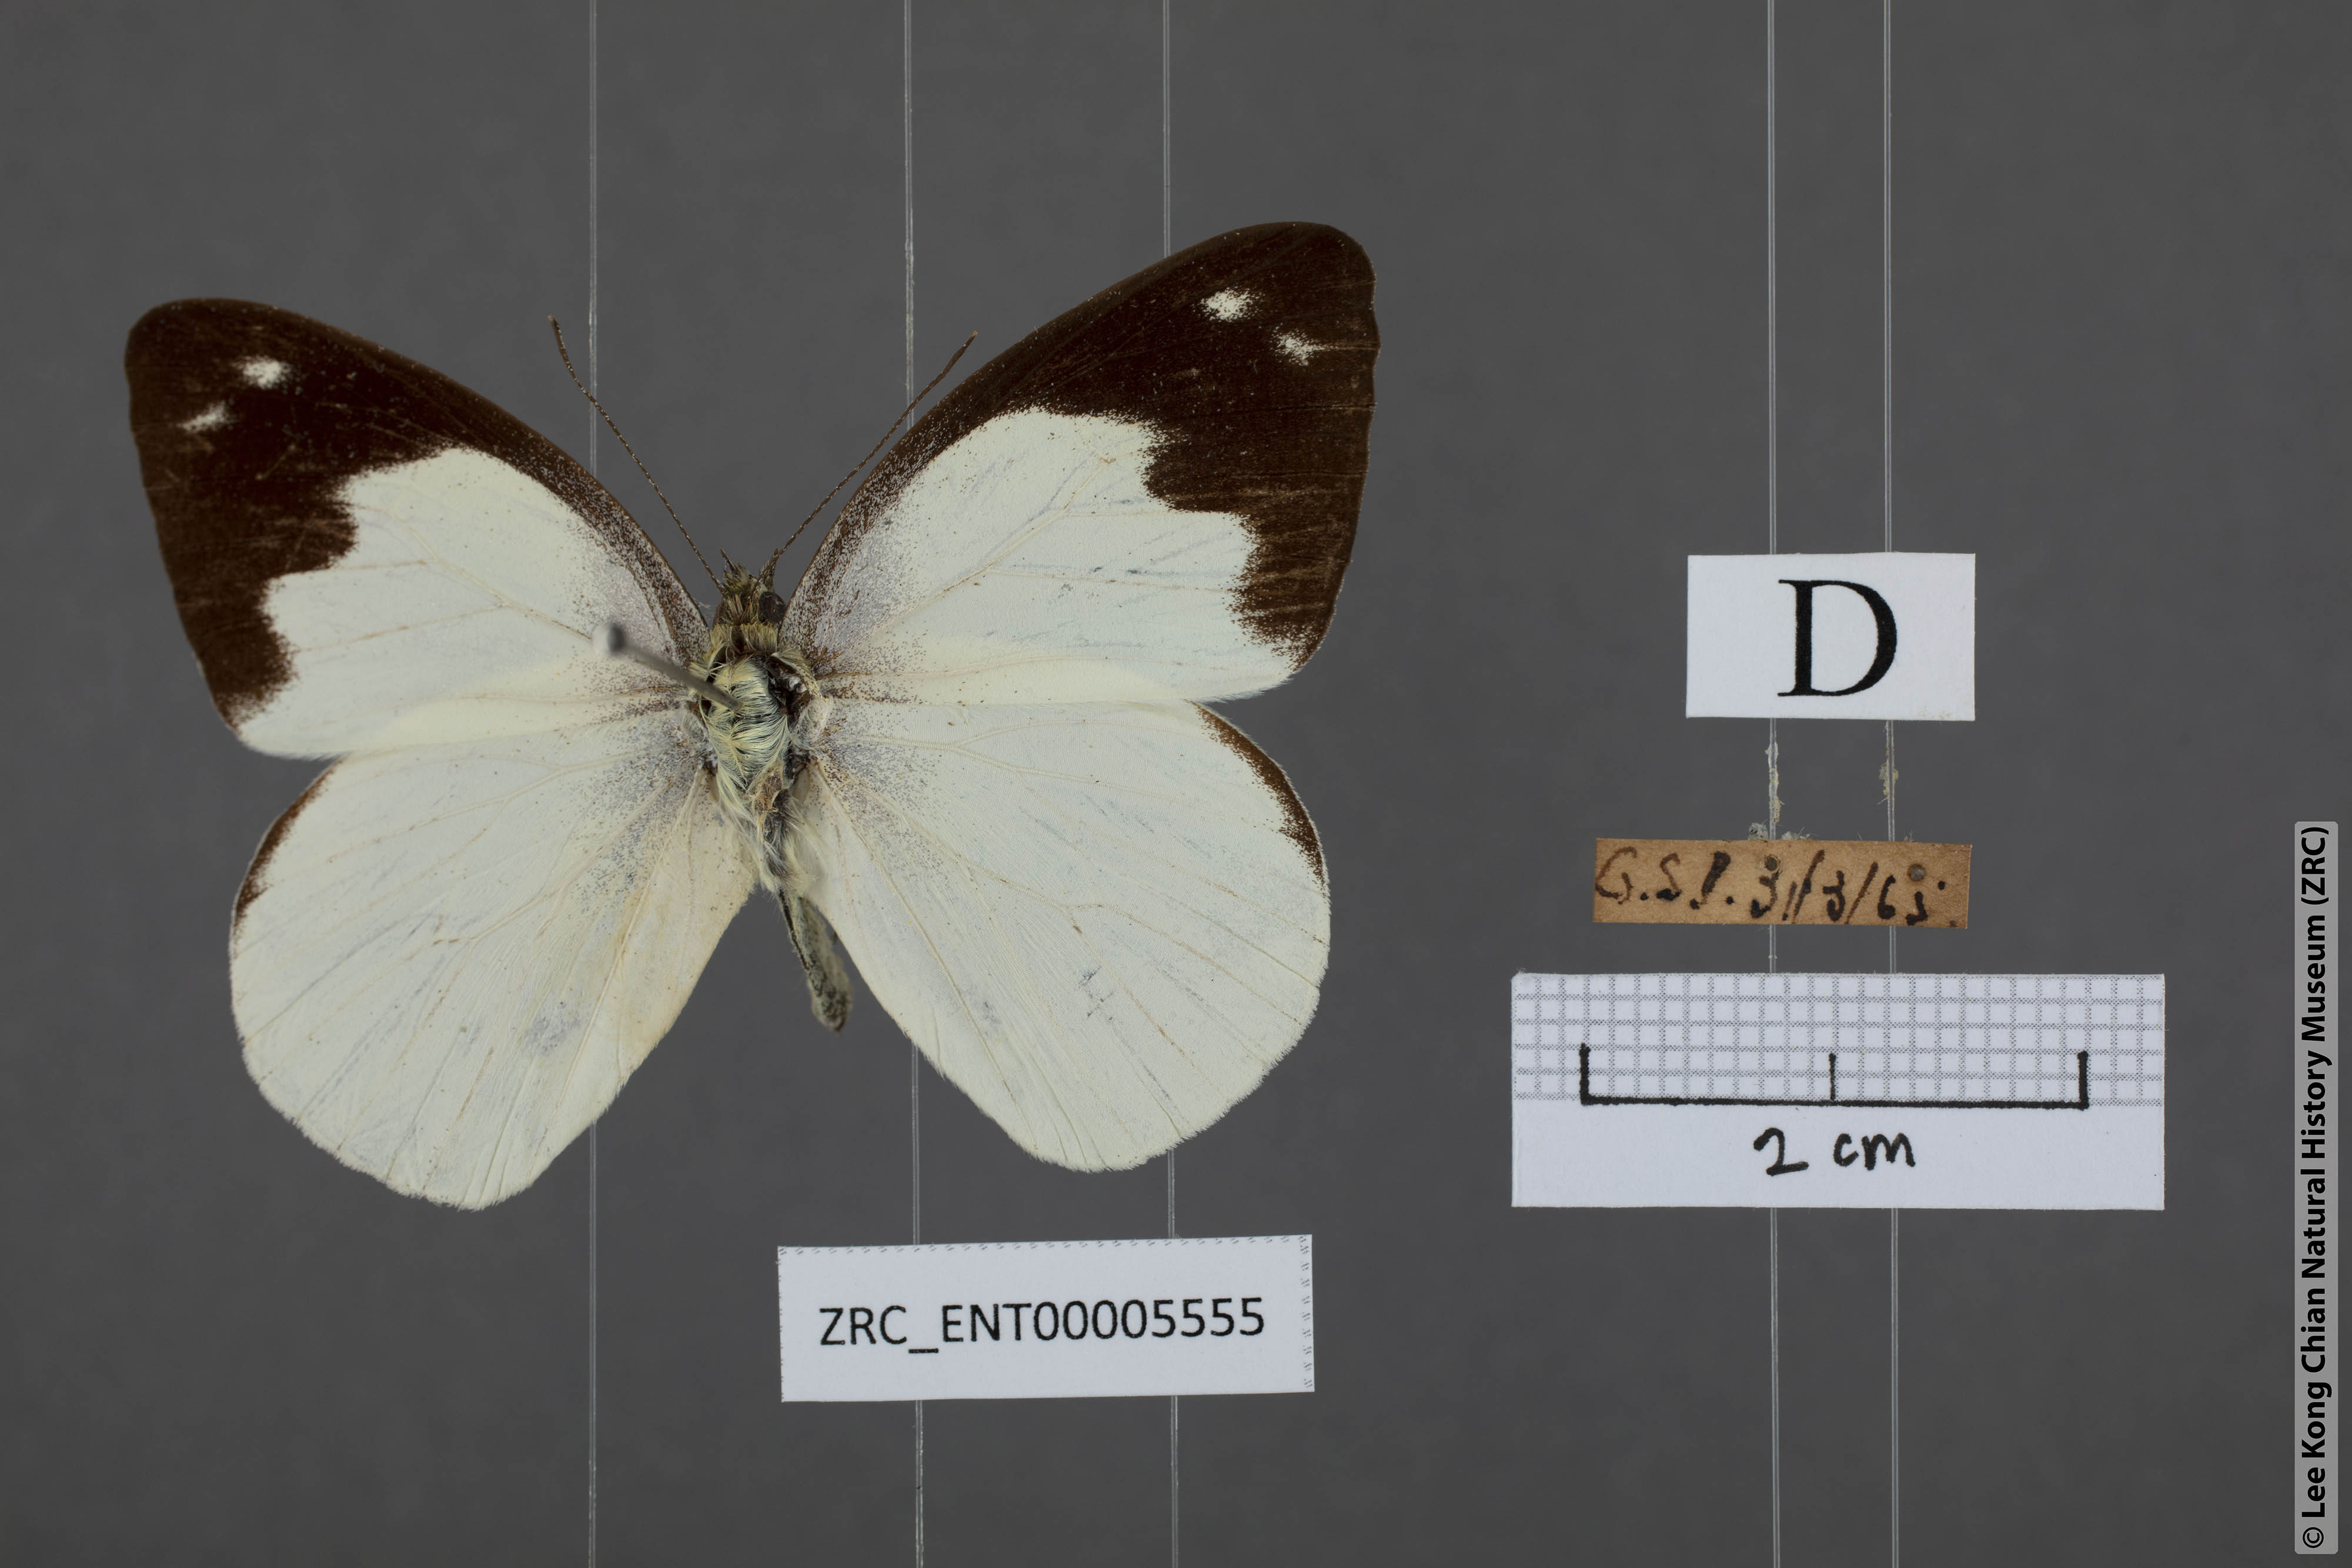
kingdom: Animalia
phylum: Arthropoda
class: Insecta
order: Lepidoptera
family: Pieridae
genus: Appias
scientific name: Appias indra
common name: Plain puffin
